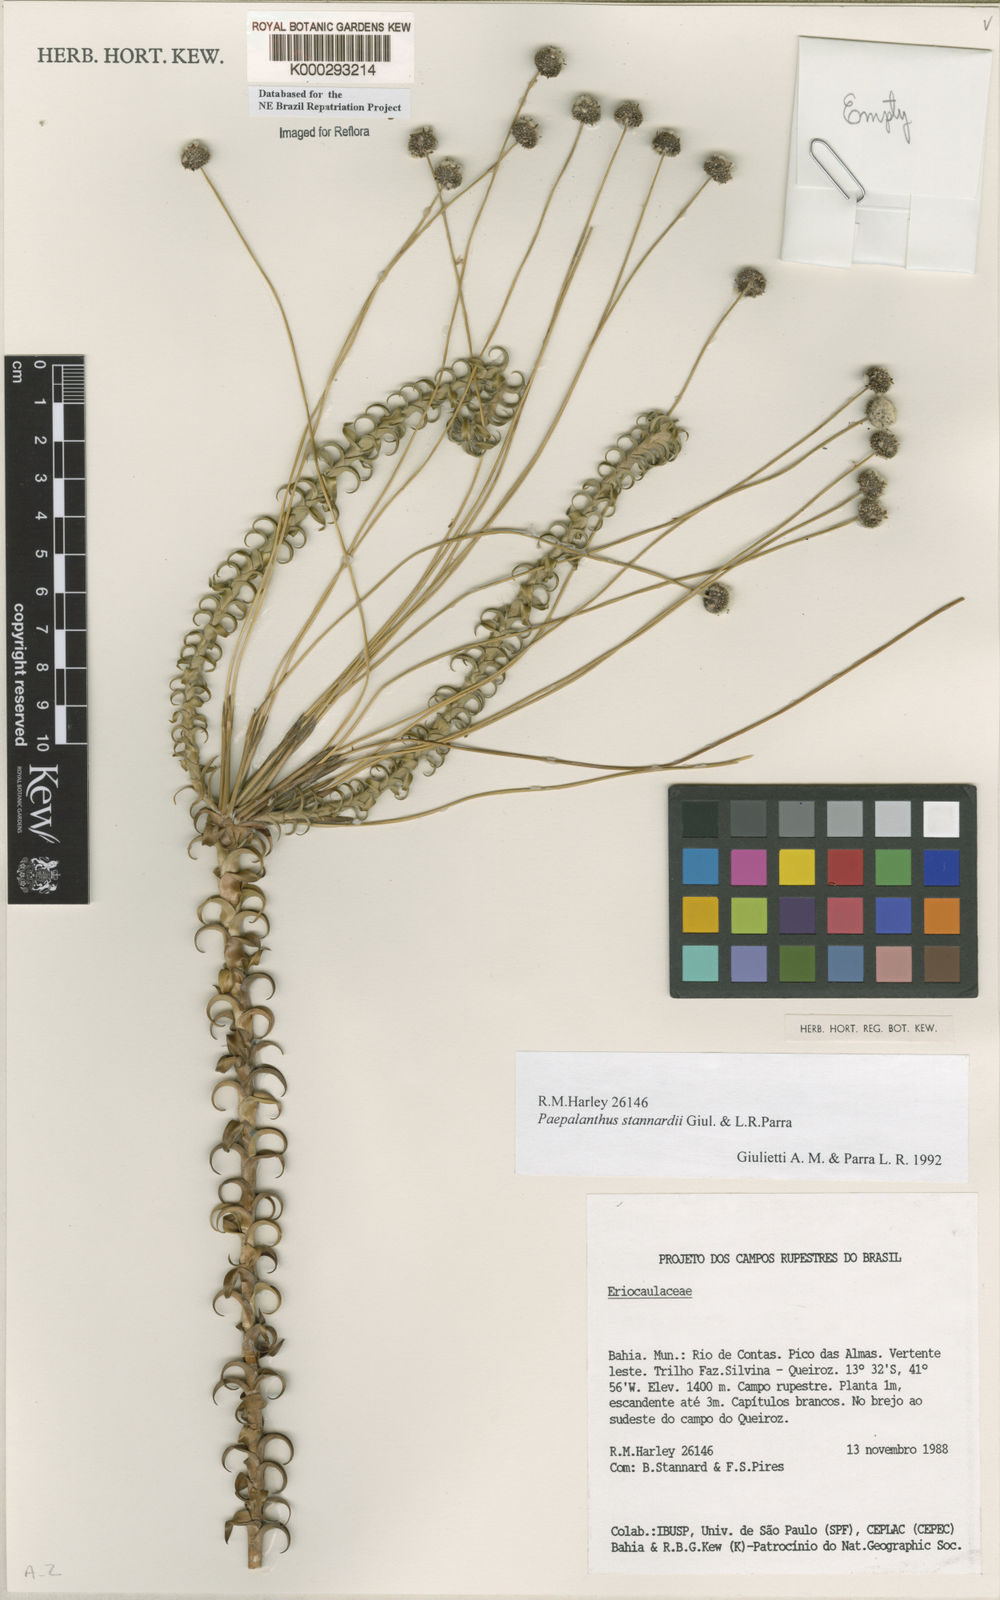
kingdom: Plantae
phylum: Tracheophyta
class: Liliopsida
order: Poales
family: Eriocaulaceae
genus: Paepalanthus
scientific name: Paepalanthus stannardii
